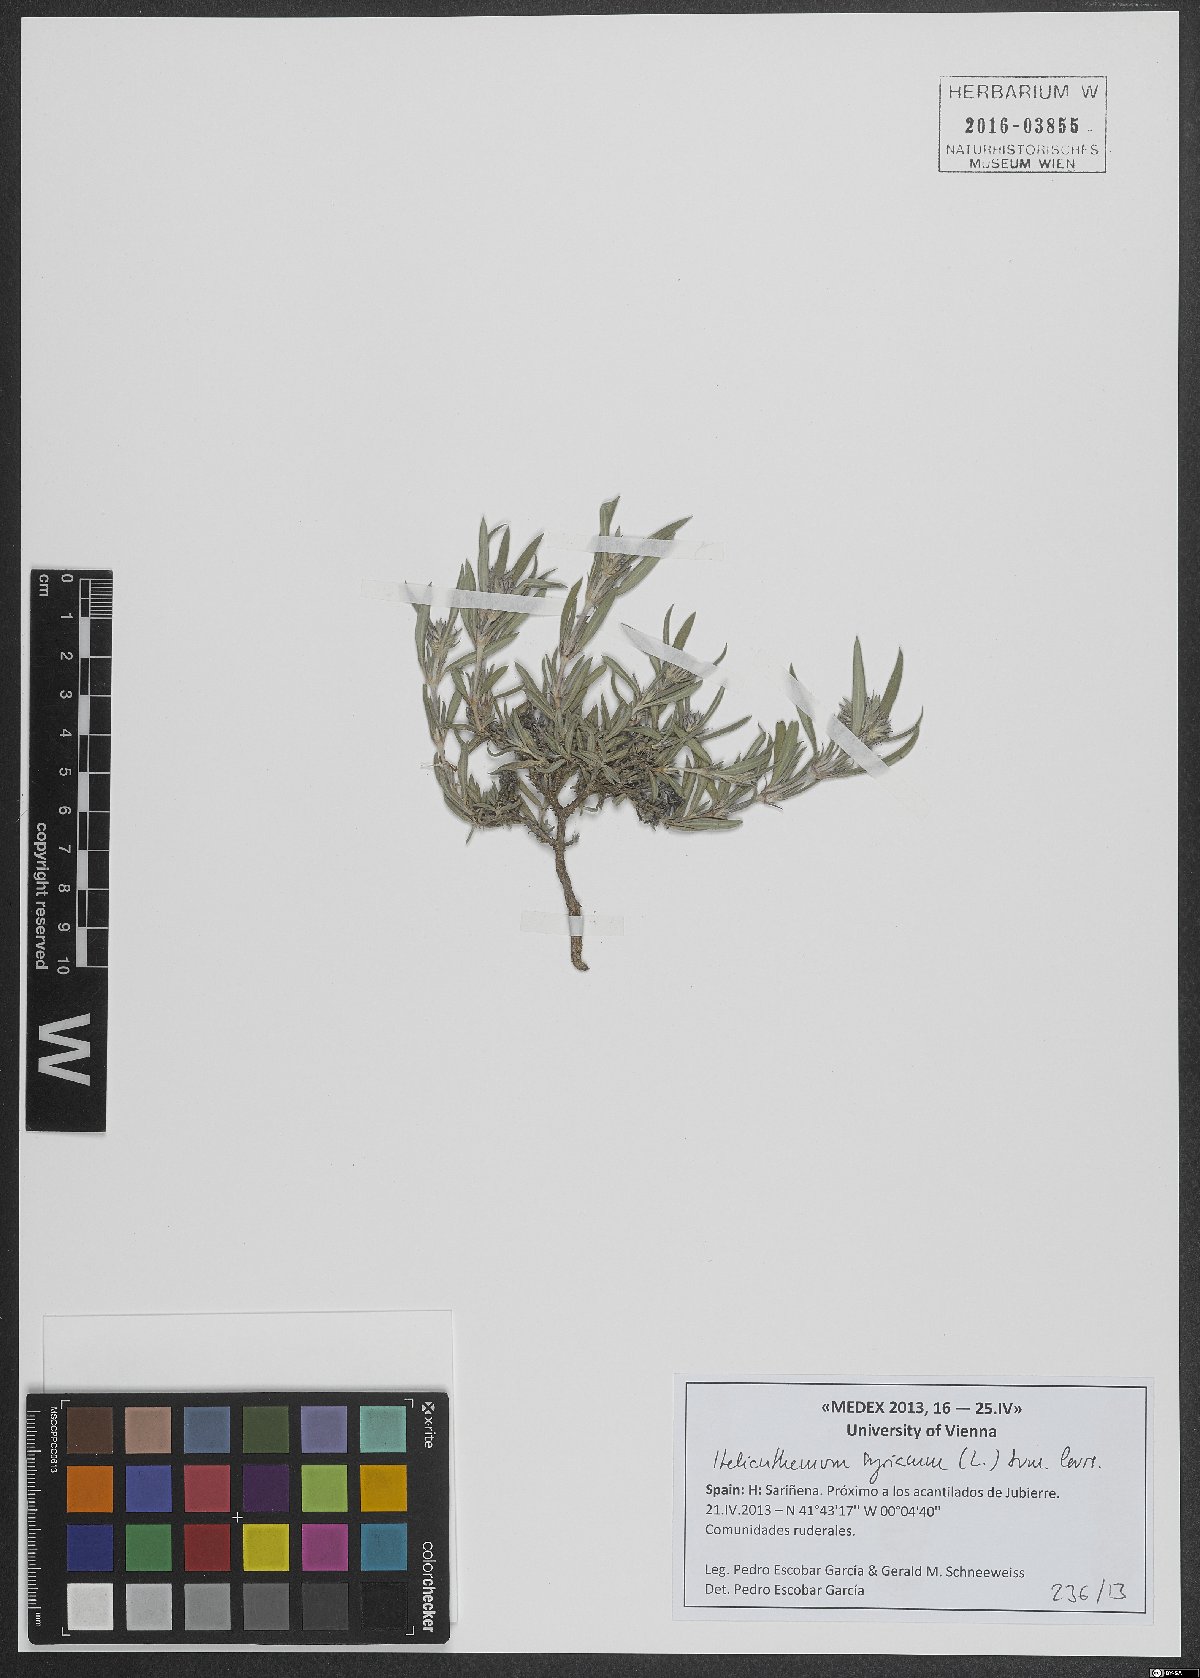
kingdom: Plantae
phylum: Tracheophyta
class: Magnoliopsida
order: Malvales
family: Cistaceae
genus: Helianthemum
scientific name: Helianthemum syriacum
